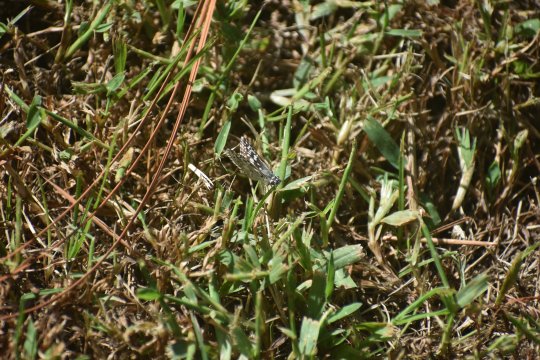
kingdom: Animalia
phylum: Arthropoda
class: Insecta
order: Lepidoptera
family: Hesperiidae
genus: Pyrgus
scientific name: Pyrgus
